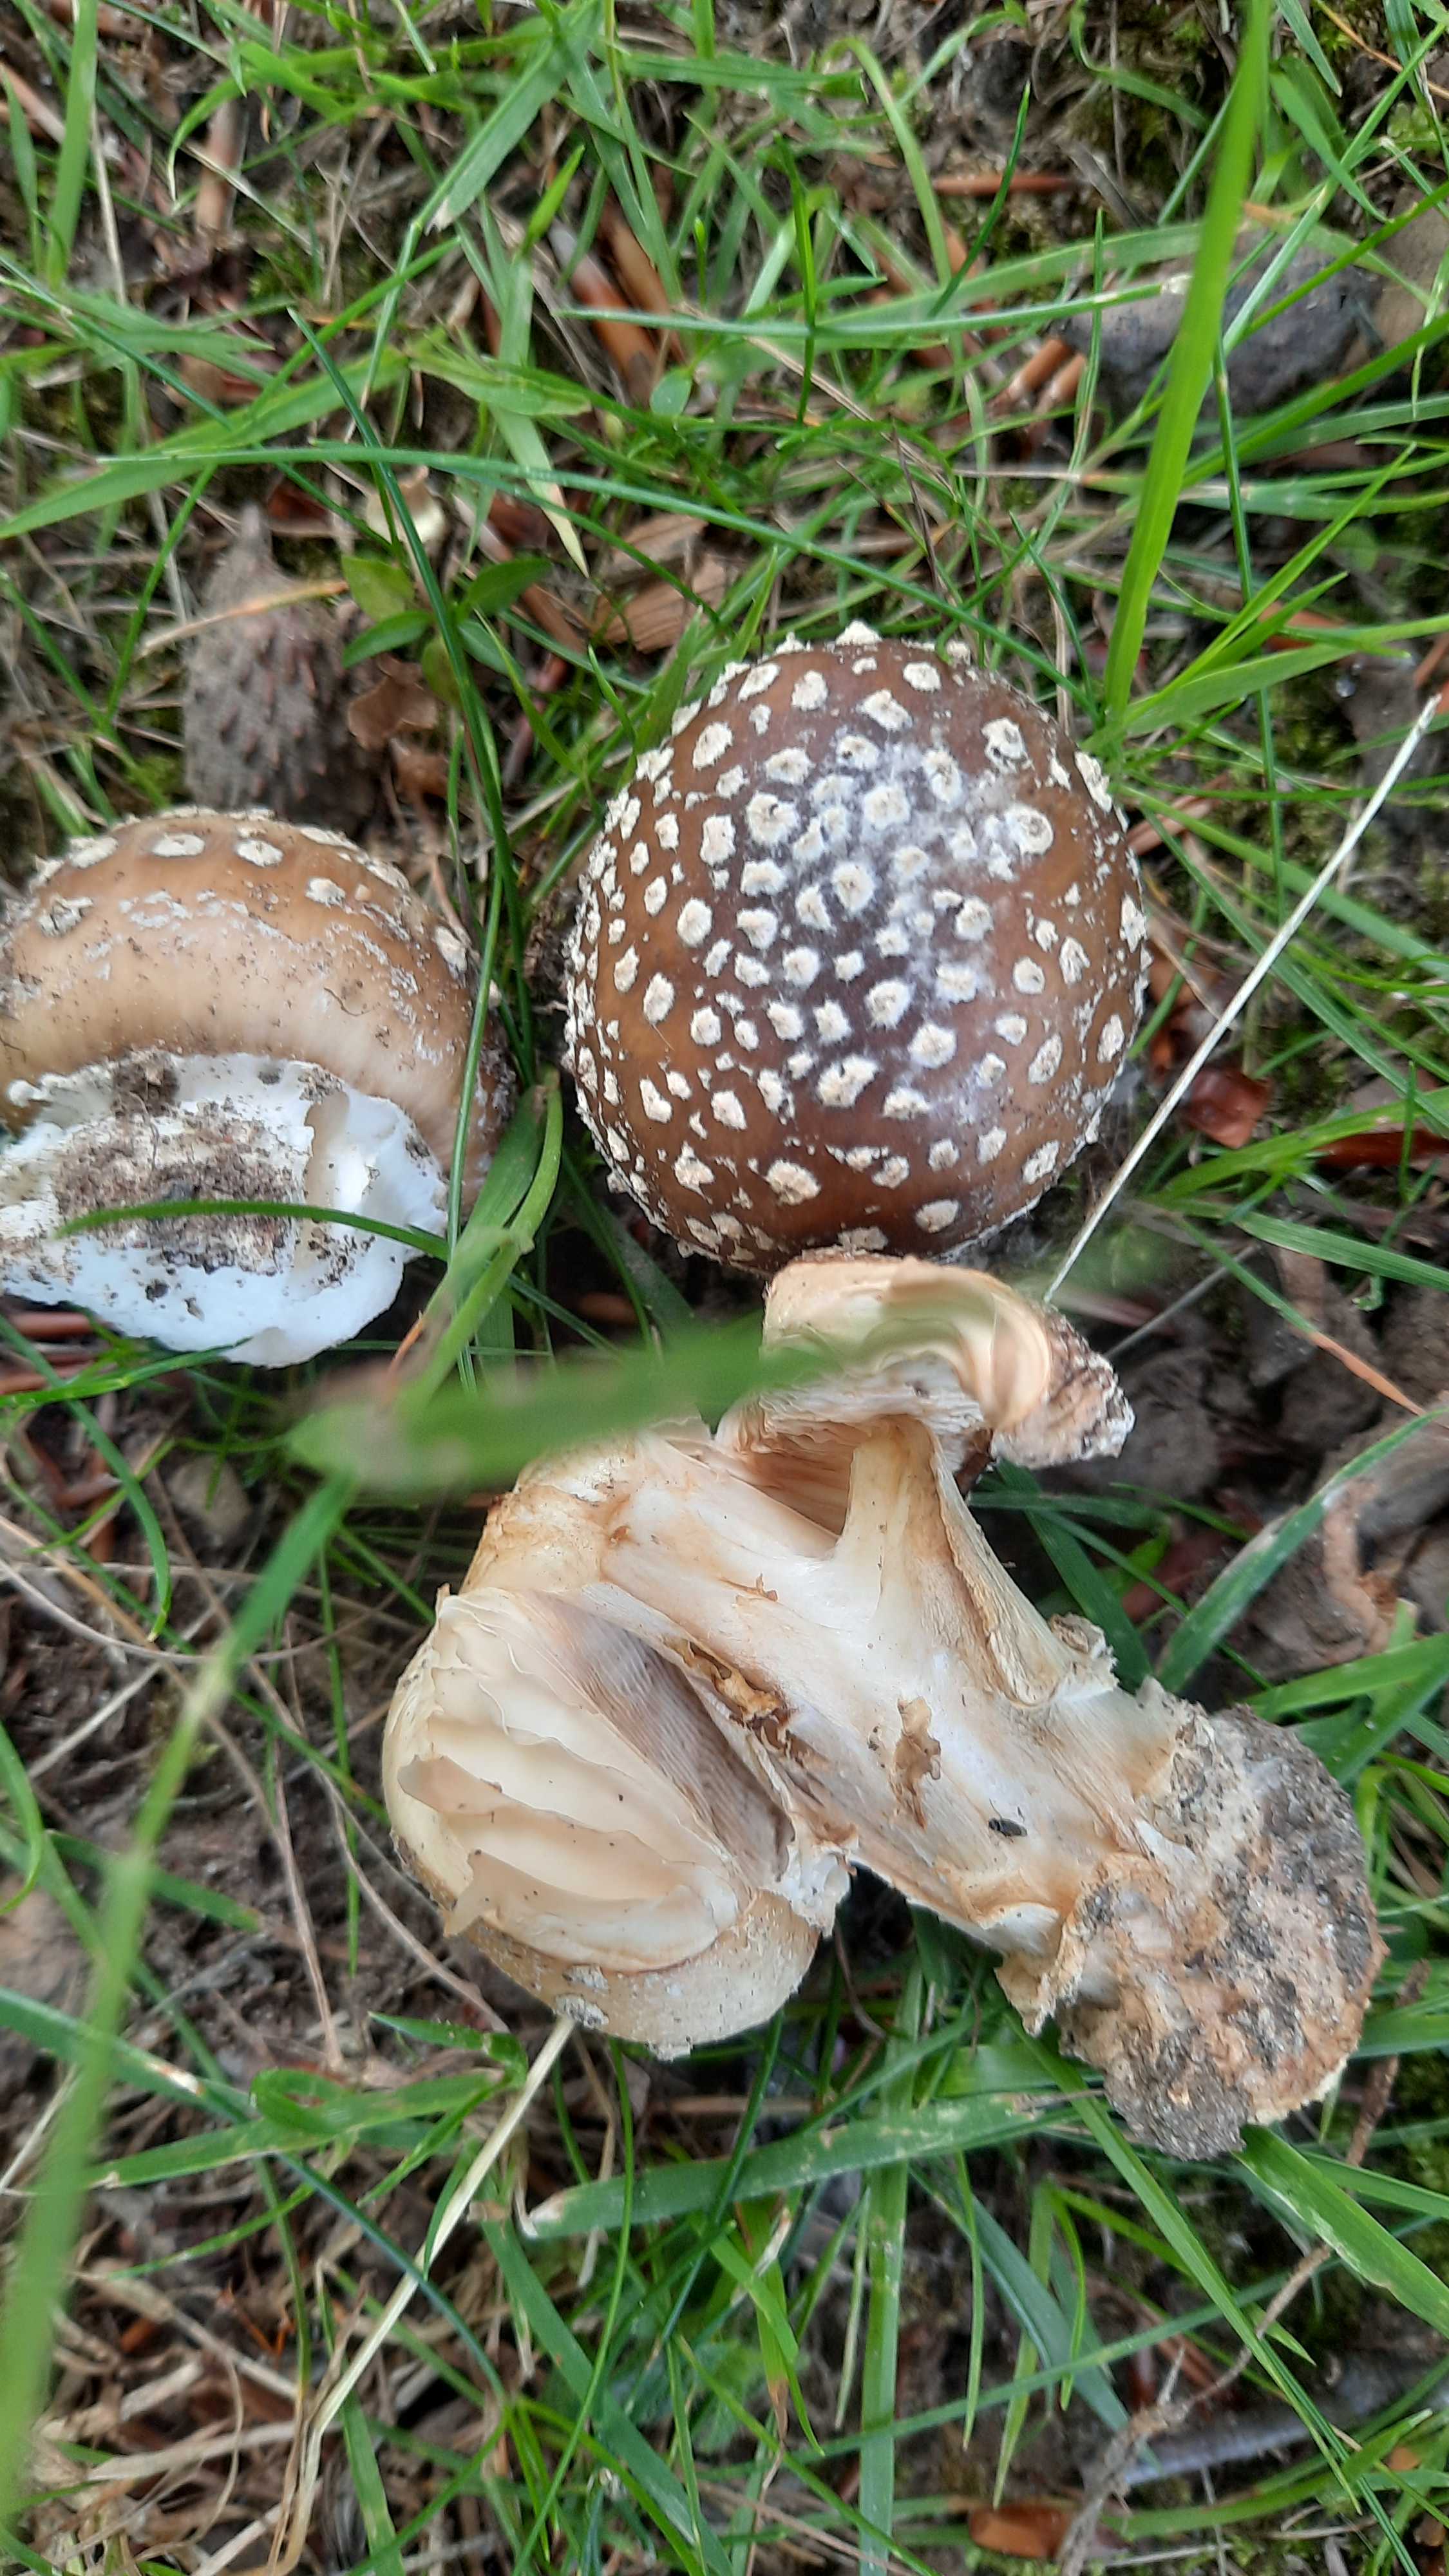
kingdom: Fungi
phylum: Basidiomycota
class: Agaricomycetes
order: Agaricales
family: Amanitaceae
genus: Amanita
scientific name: Amanita
